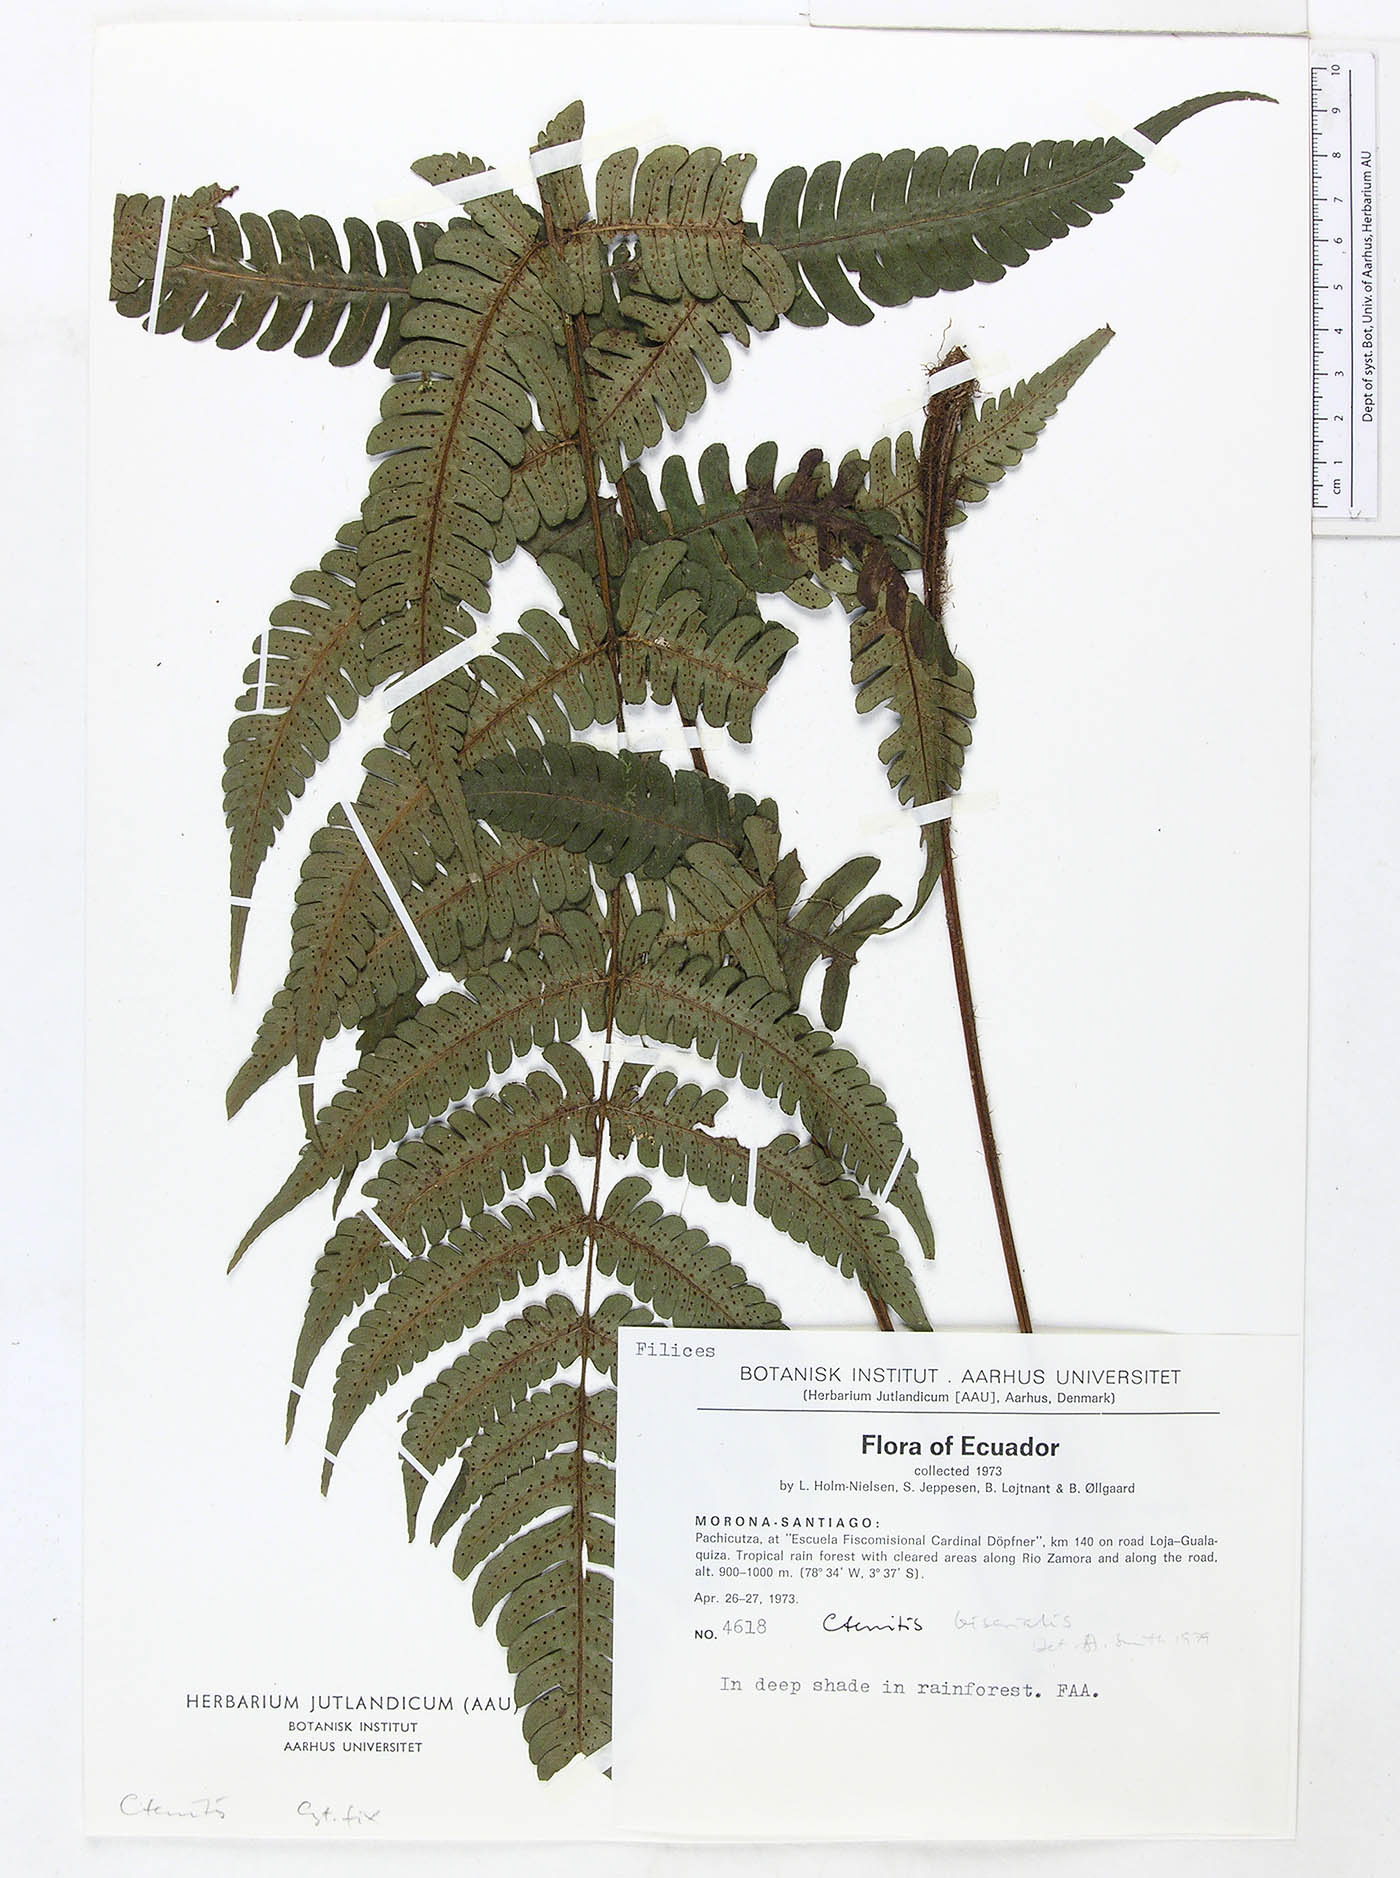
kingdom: Plantae
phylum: Tracheophyta
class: Polypodiopsida
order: Polypodiales
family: Dryopteridaceae
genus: Megalastrum
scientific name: Megalastrum fibrillosum
